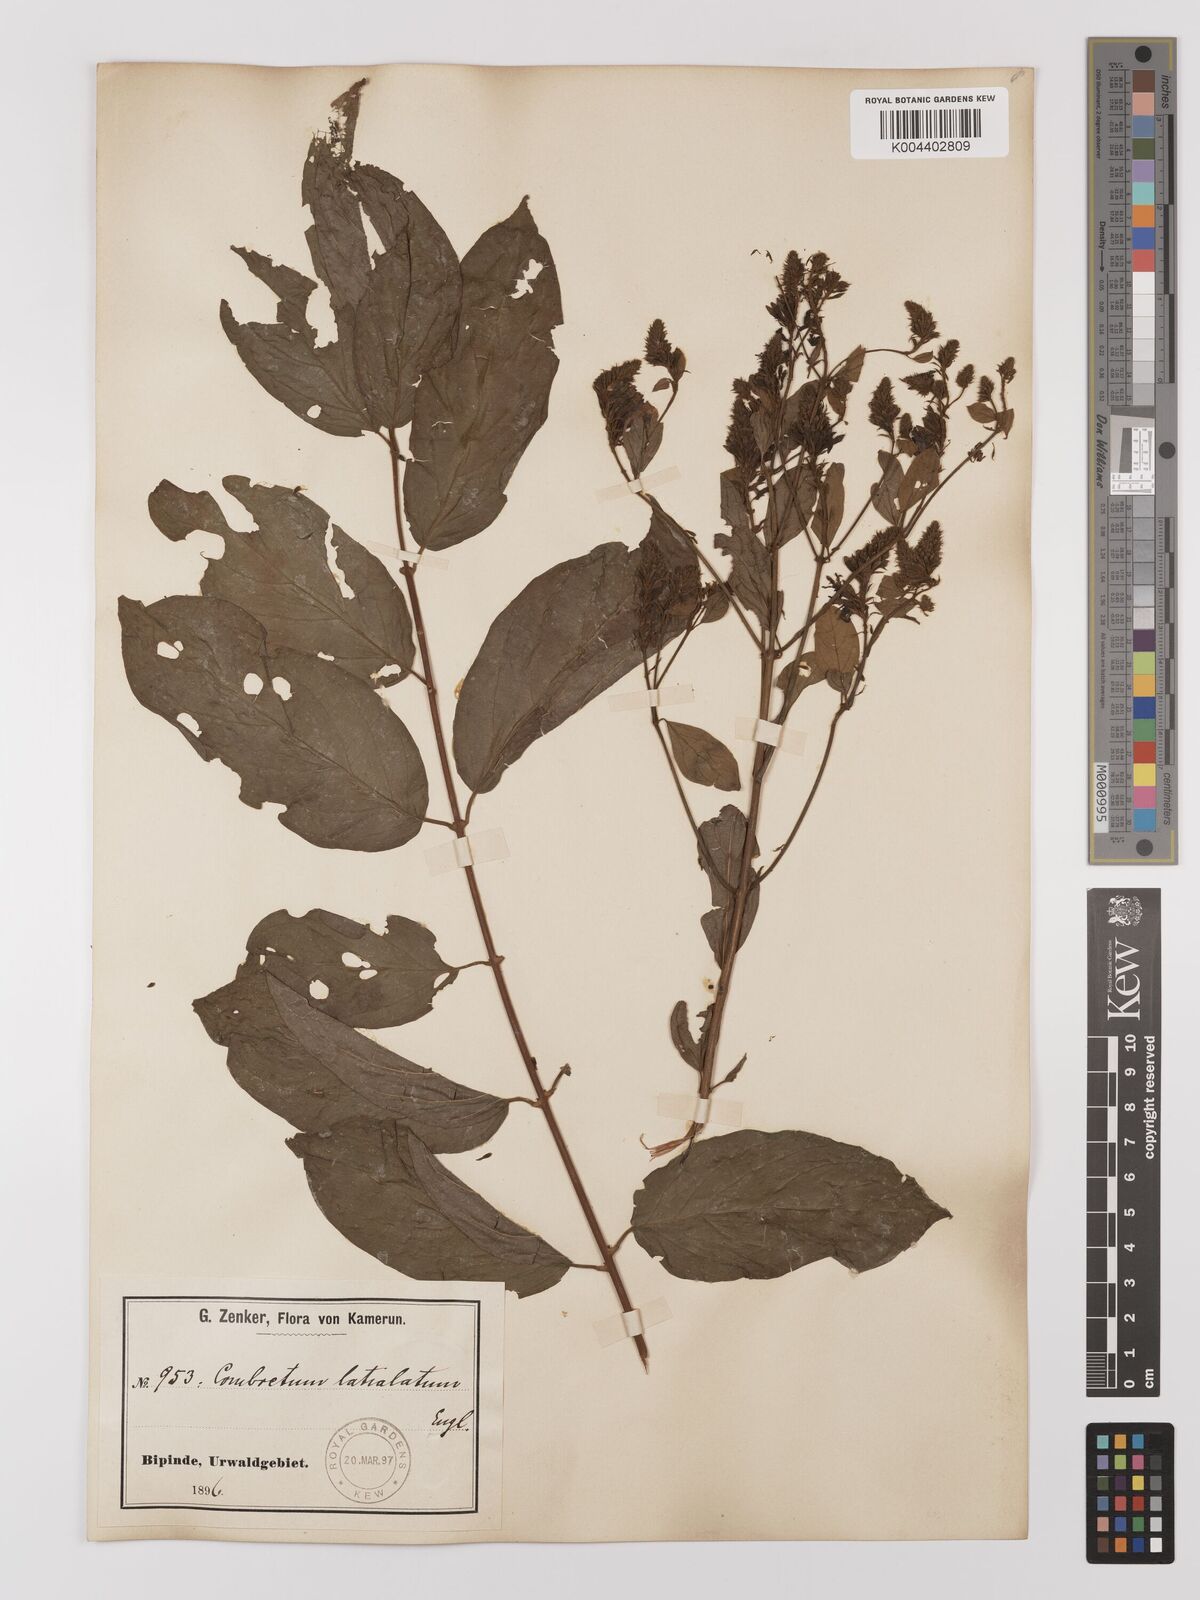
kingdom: Plantae
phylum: Tracheophyta
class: Magnoliopsida
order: Myrtales
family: Combretaceae
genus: Combretum
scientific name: Combretum latialatum
